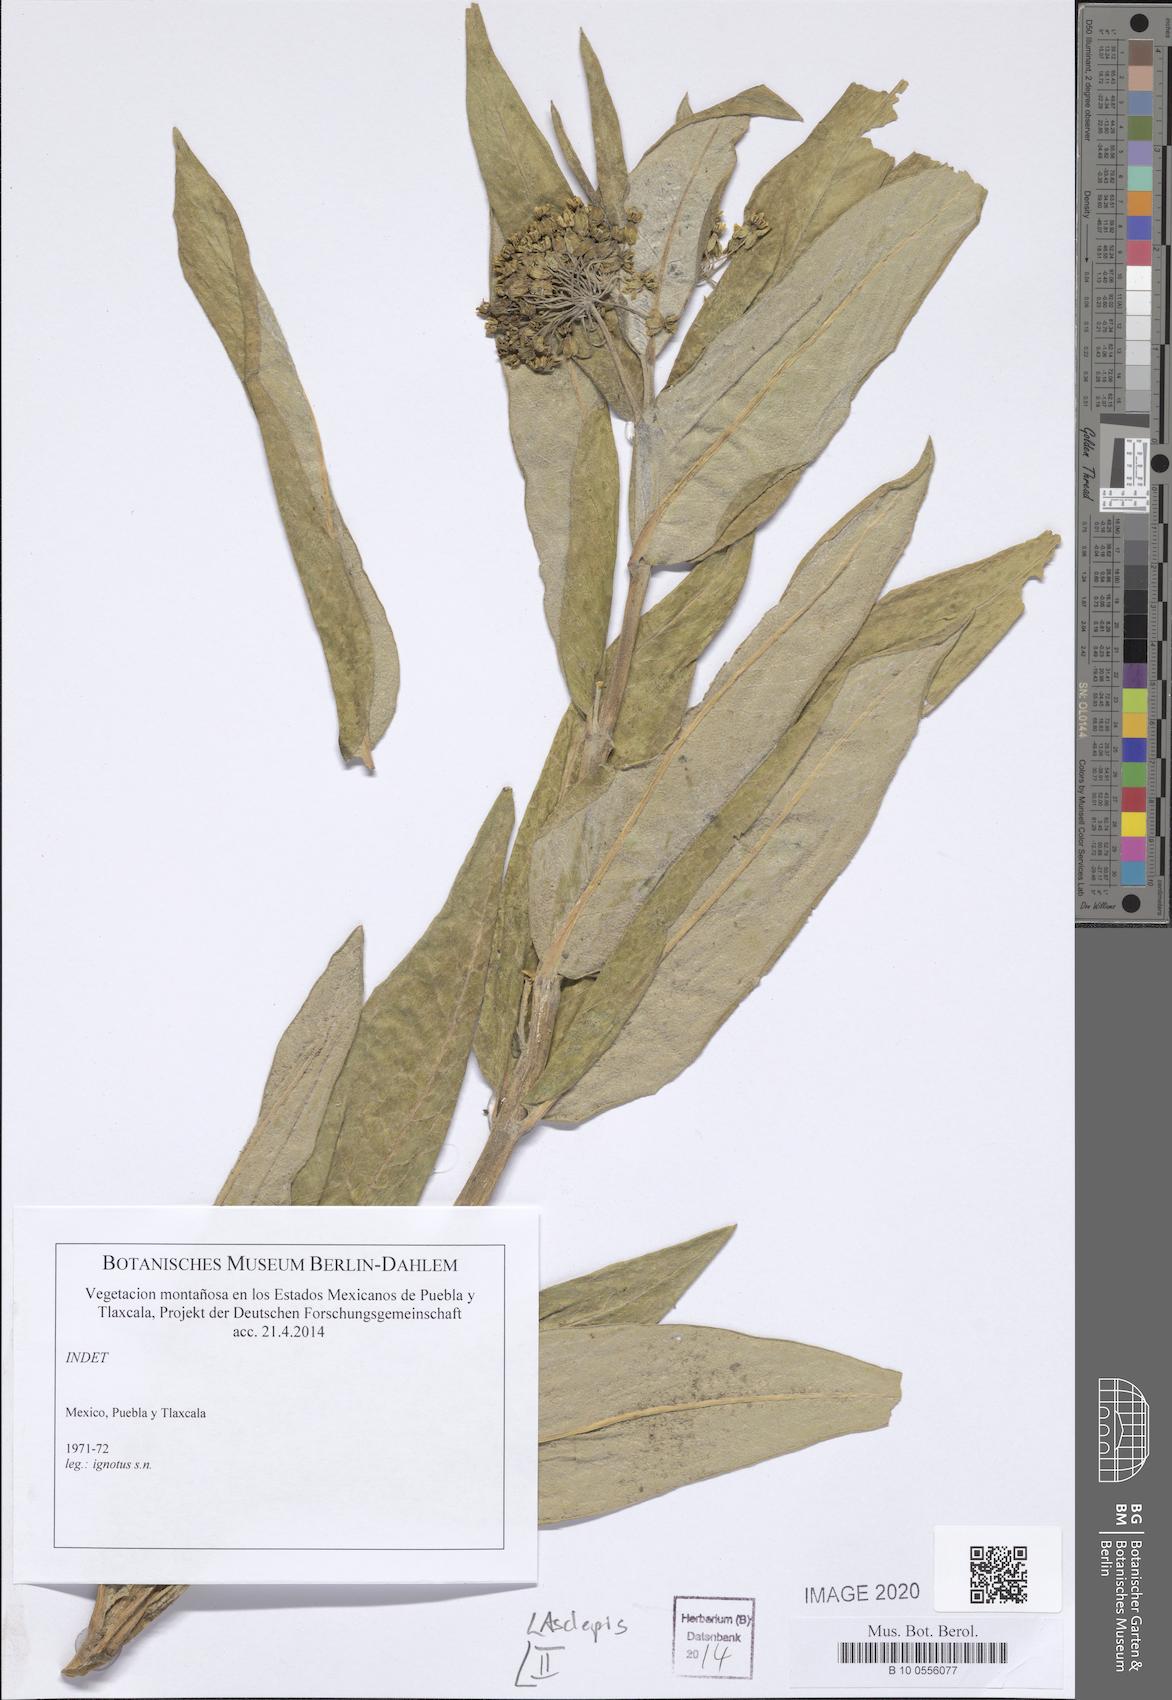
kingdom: Plantae
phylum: Tracheophyta
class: Magnoliopsida
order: Gentianales
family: Apocynaceae
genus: Asclepias
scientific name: Asclepias
